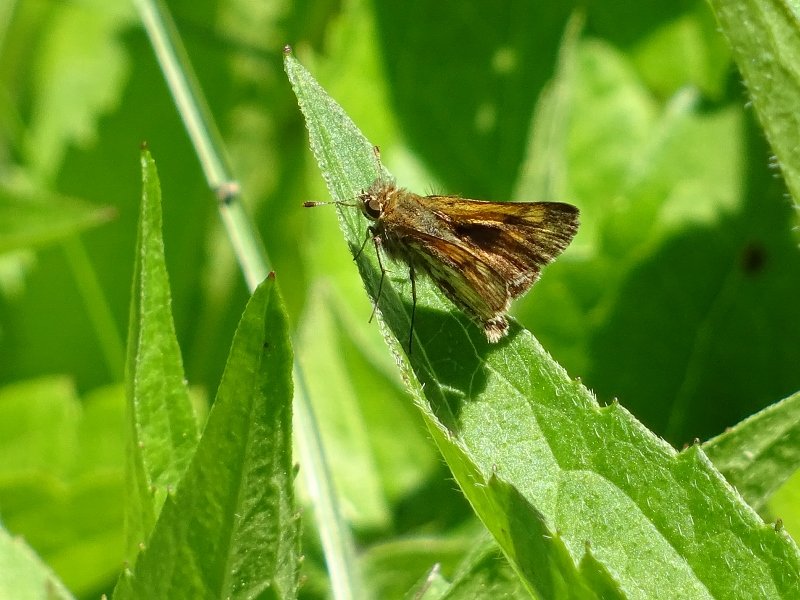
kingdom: Animalia
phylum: Arthropoda
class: Insecta
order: Lepidoptera
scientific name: Lepidoptera
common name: Butterflies
